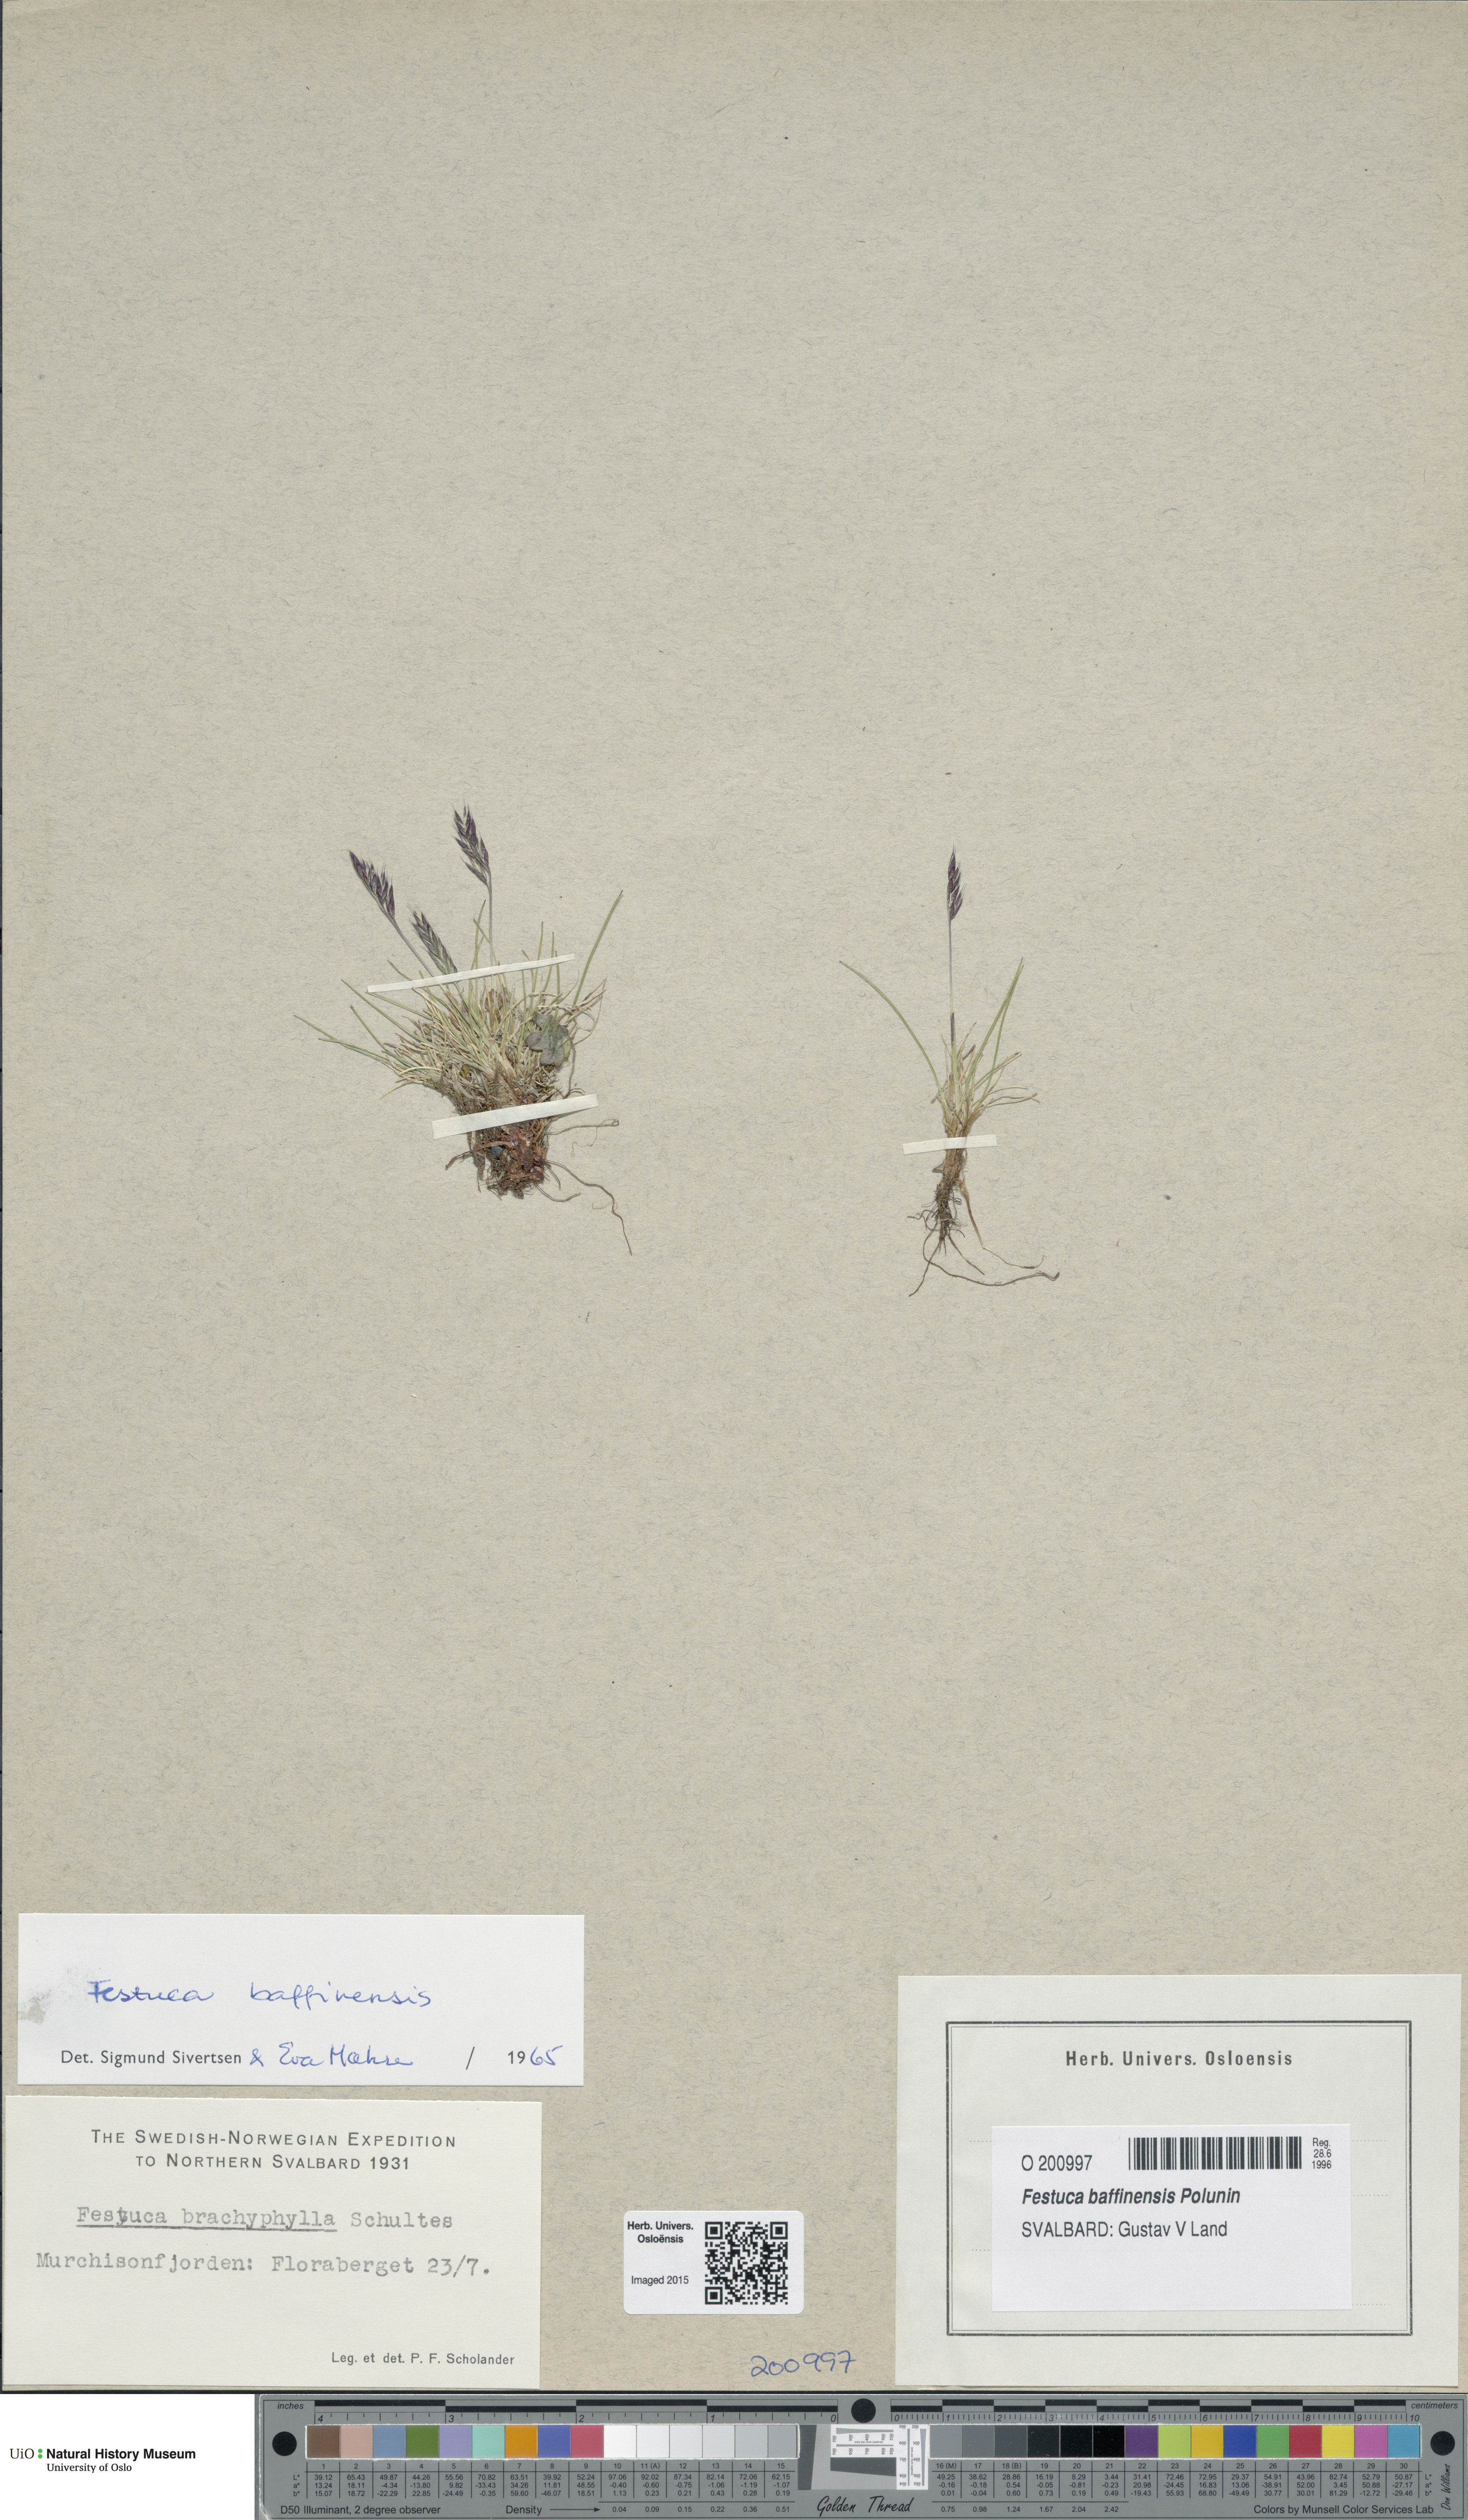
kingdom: Plantae
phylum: Tracheophyta
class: Liliopsida
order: Poales
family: Poaceae
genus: Festuca
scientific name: Festuca baffinensis
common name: Baffin island fescue
